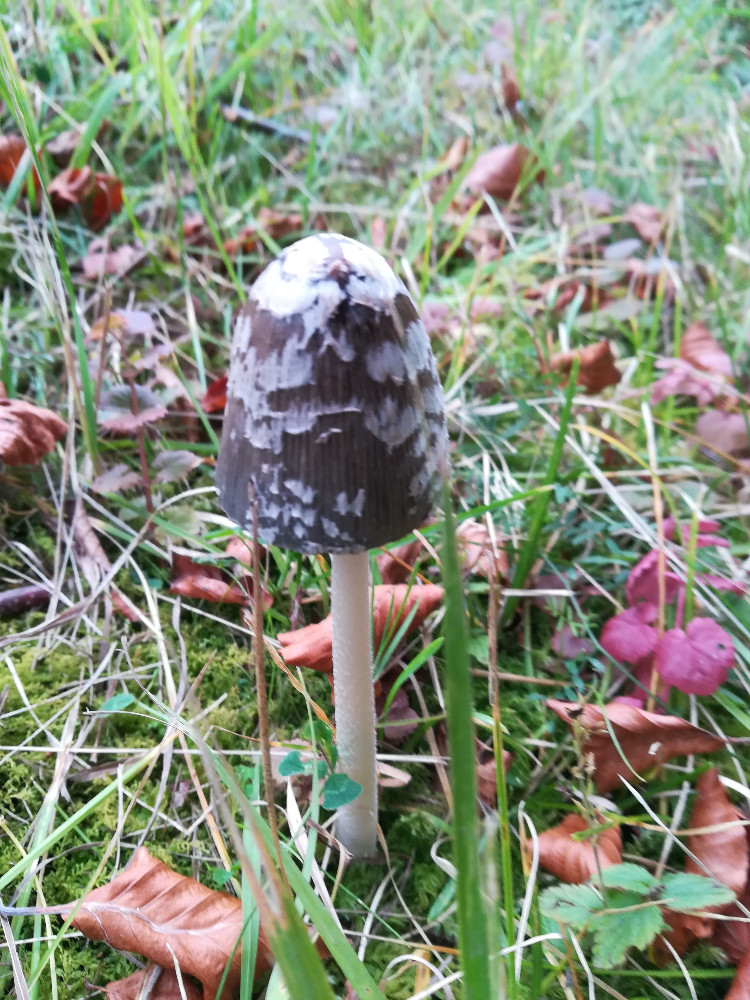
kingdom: Fungi
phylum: Basidiomycota
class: Agaricomycetes
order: Agaricales
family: Psathyrellaceae
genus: Coprinopsis
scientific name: Coprinopsis picacea
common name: skade-blækhat
